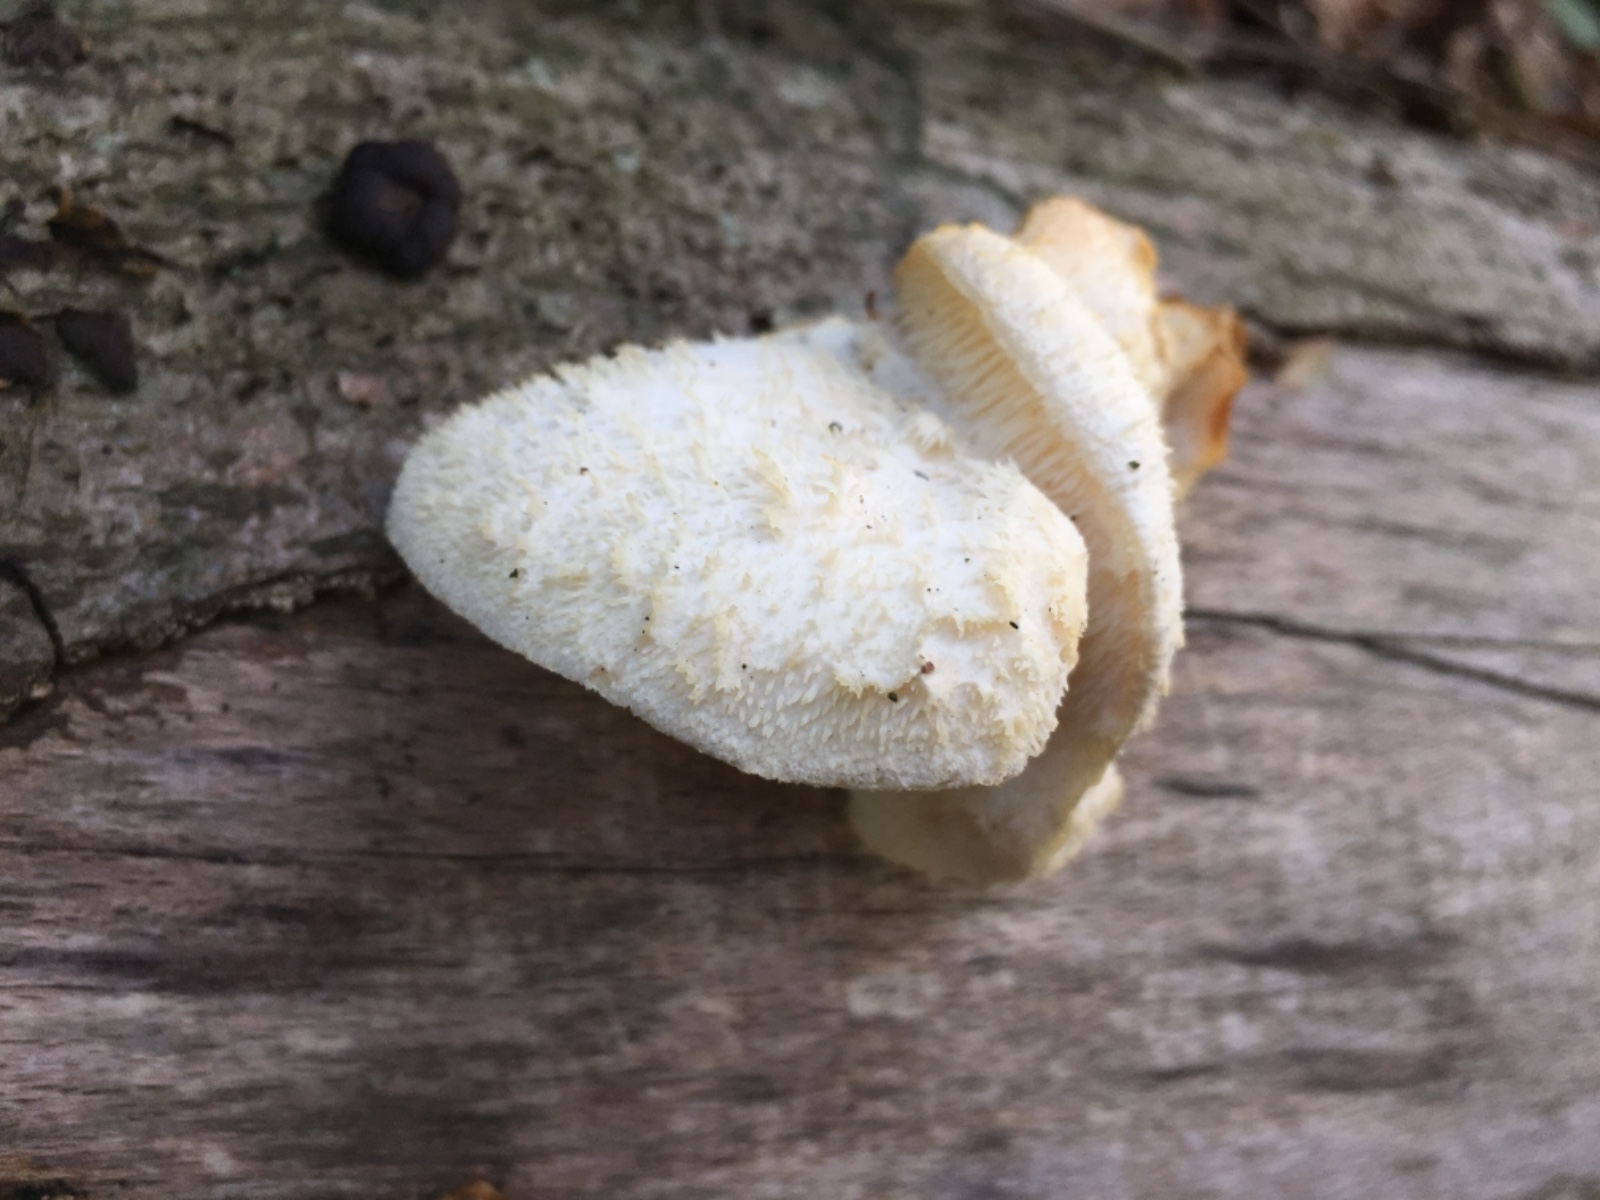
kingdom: Fungi
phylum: Basidiomycota
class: Agaricomycetes
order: Russulales
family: Hericiaceae
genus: Hericium
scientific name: Hericium cirrhatum
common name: børstepigsvamp
